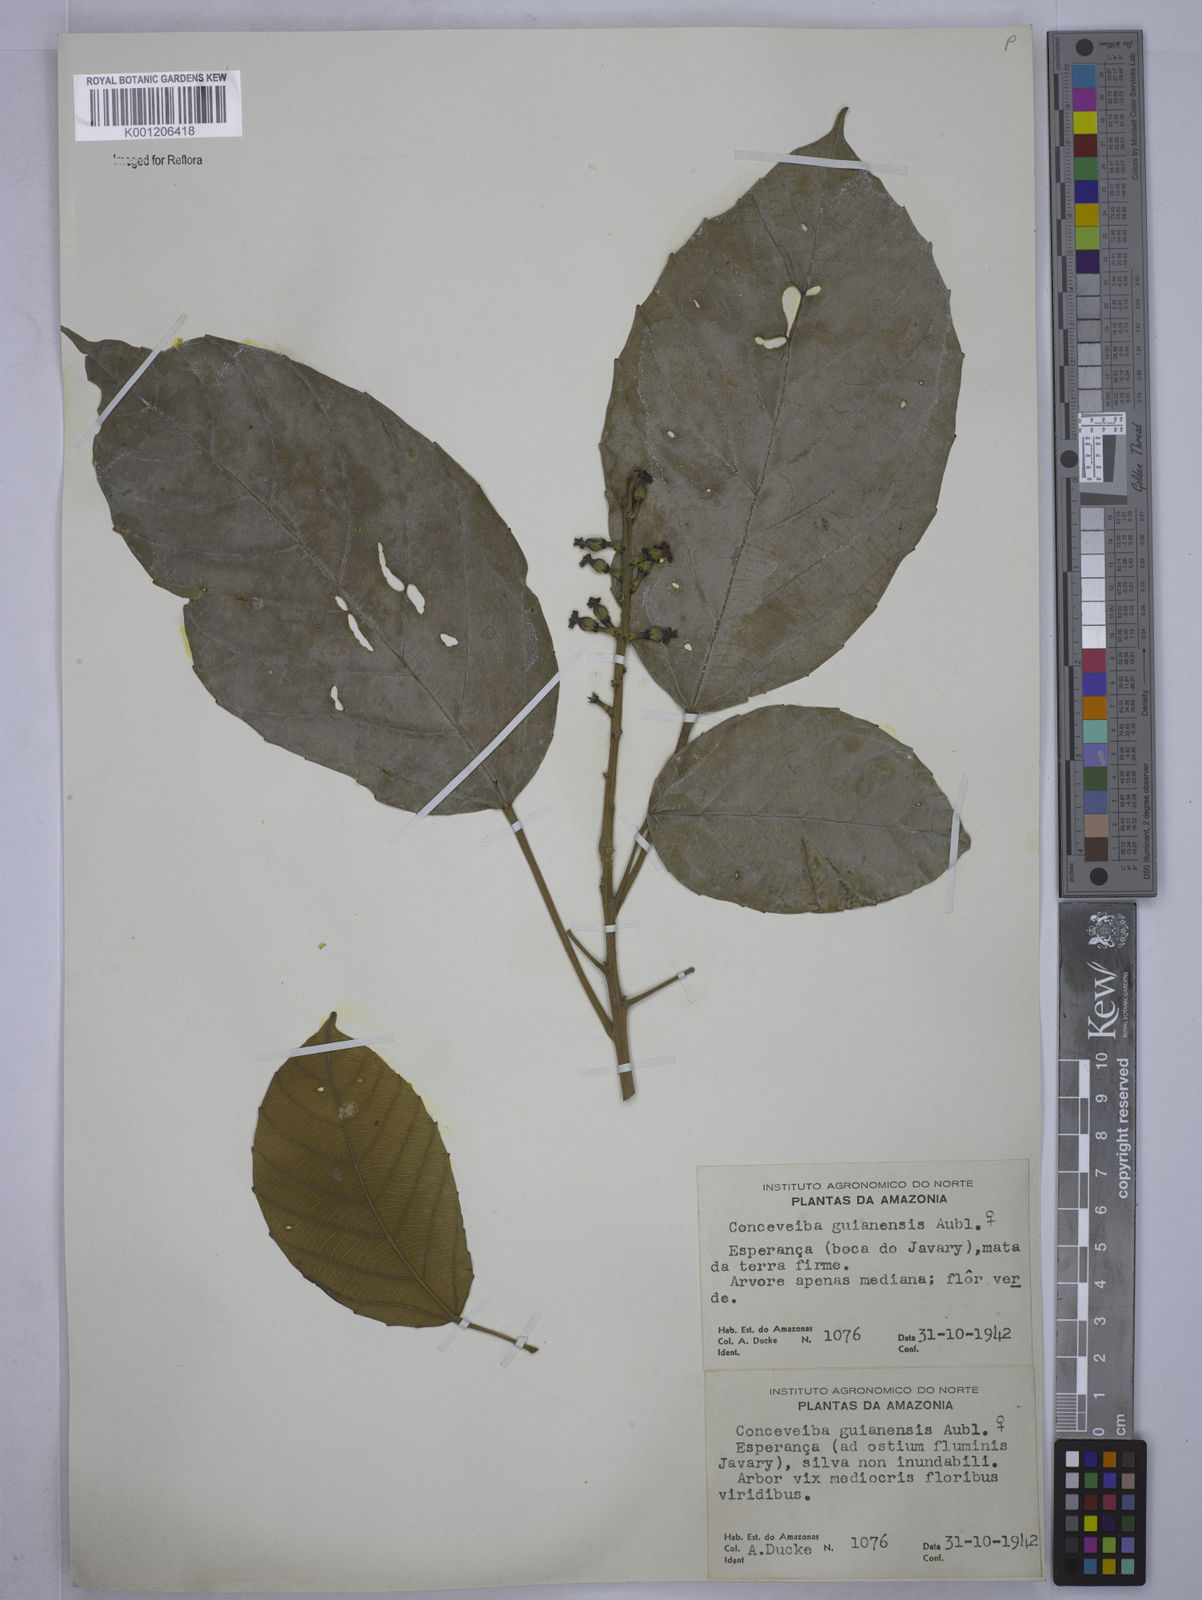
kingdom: Plantae
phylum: Tracheophyta
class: Magnoliopsida
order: Malpighiales
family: Euphorbiaceae
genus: Conceveiba
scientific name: Conceveiba guianensis
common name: Poatoru
